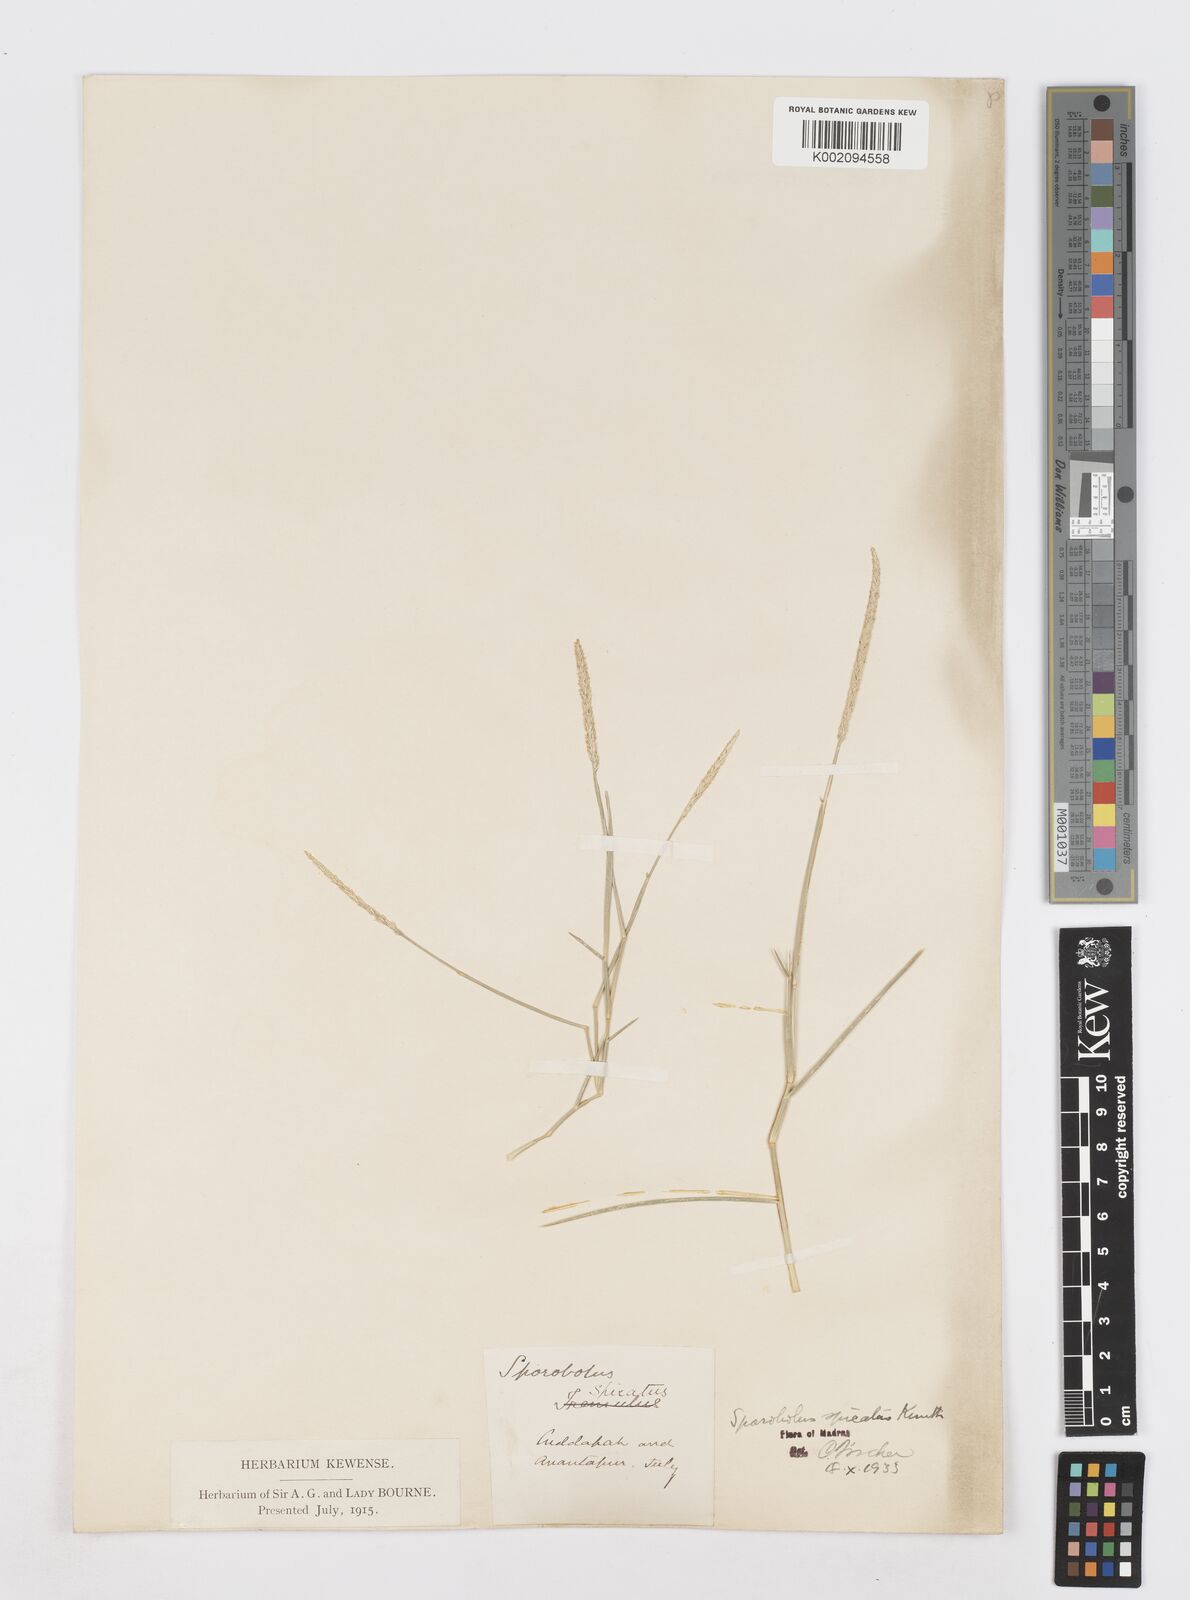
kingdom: Plantae
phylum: Tracheophyta
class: Liliopsida
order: Poales
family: Poaceae
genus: Sporobolus
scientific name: Sporobolus spicatus
